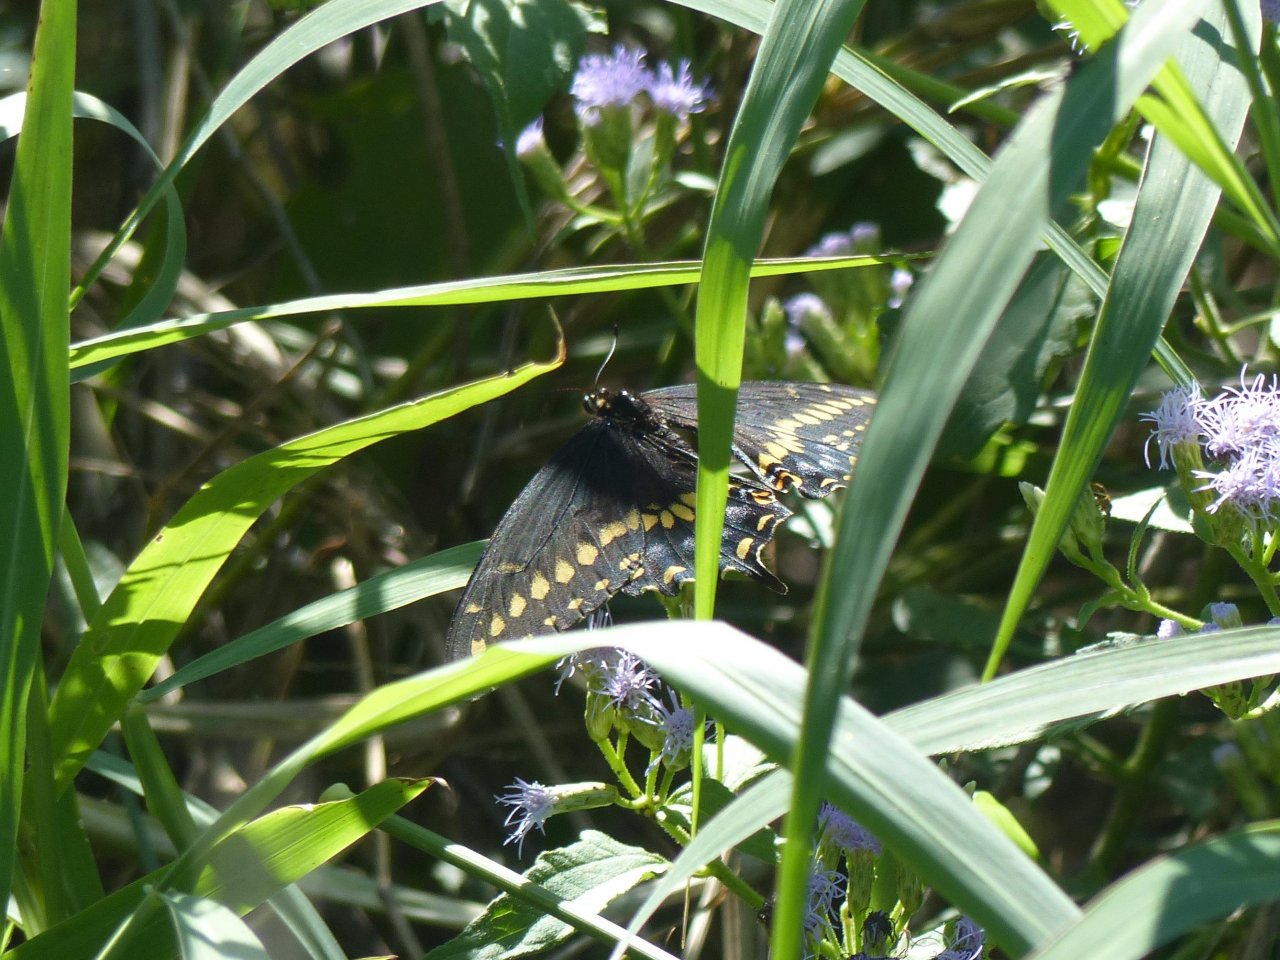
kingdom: Animalia
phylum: Arthropoda
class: Insecta
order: Lepidoptera
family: Papilionidae
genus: Papilio
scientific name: Papilio polyxenes
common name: Black Swallowtail
